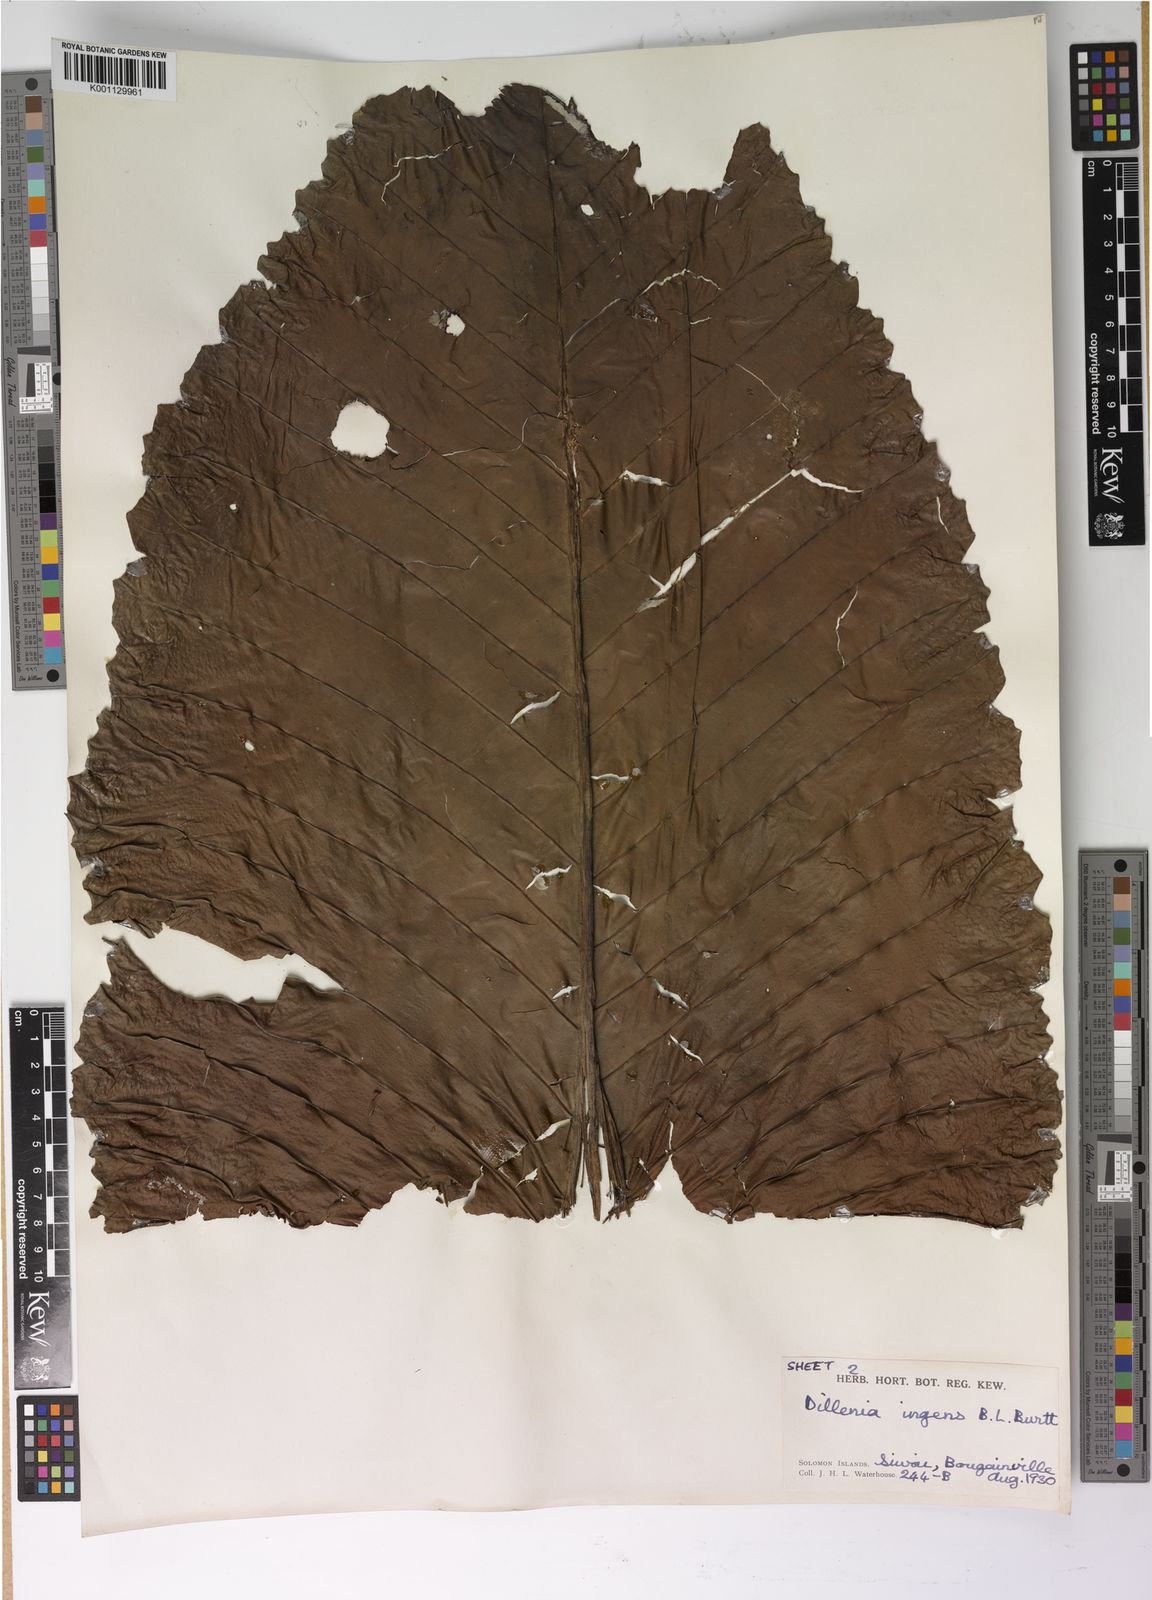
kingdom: Plantae
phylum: Tracheophyta
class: Magnoliopsida
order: Dilleniales
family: Dilleniaceae
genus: Dillenia
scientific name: Dillenia ingens
